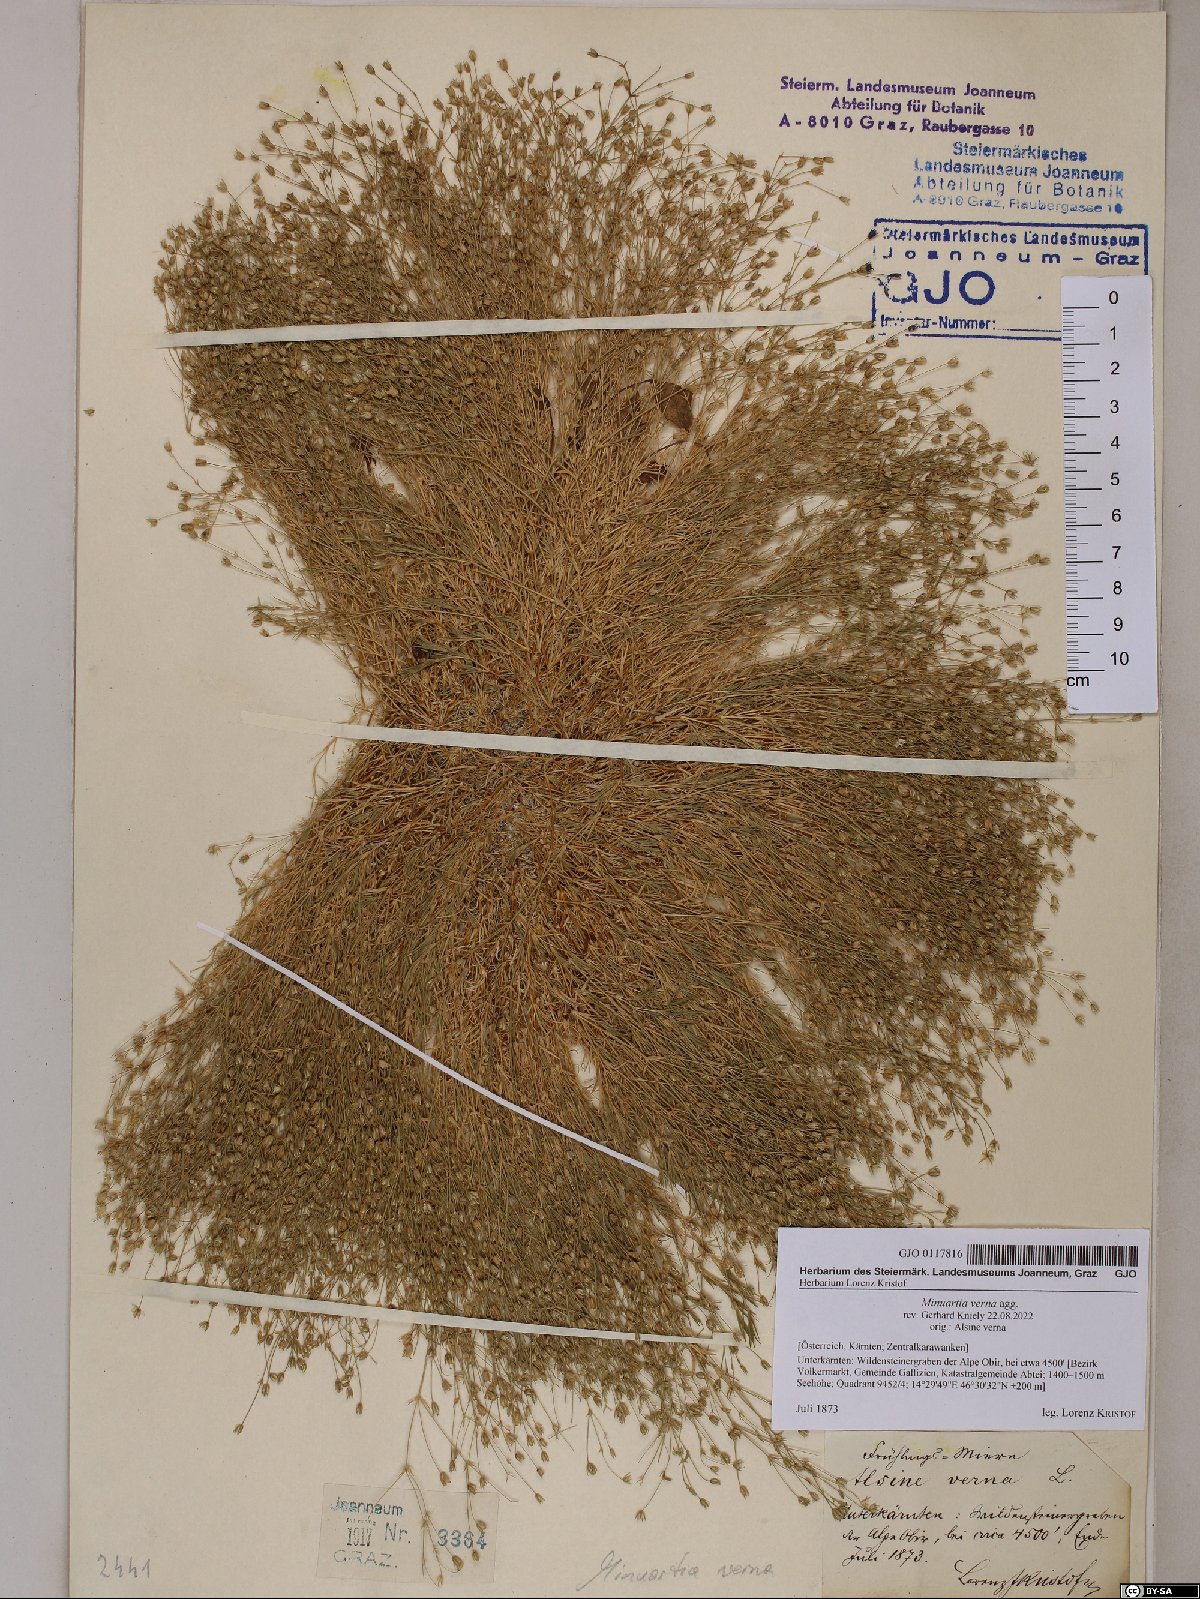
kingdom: Plantae
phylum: Tracheophyta
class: Magnoliopsida
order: Caryophyllales
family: Caryophyllaceae
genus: Sabulina
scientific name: Sabulina verna
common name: Spring sandwort
